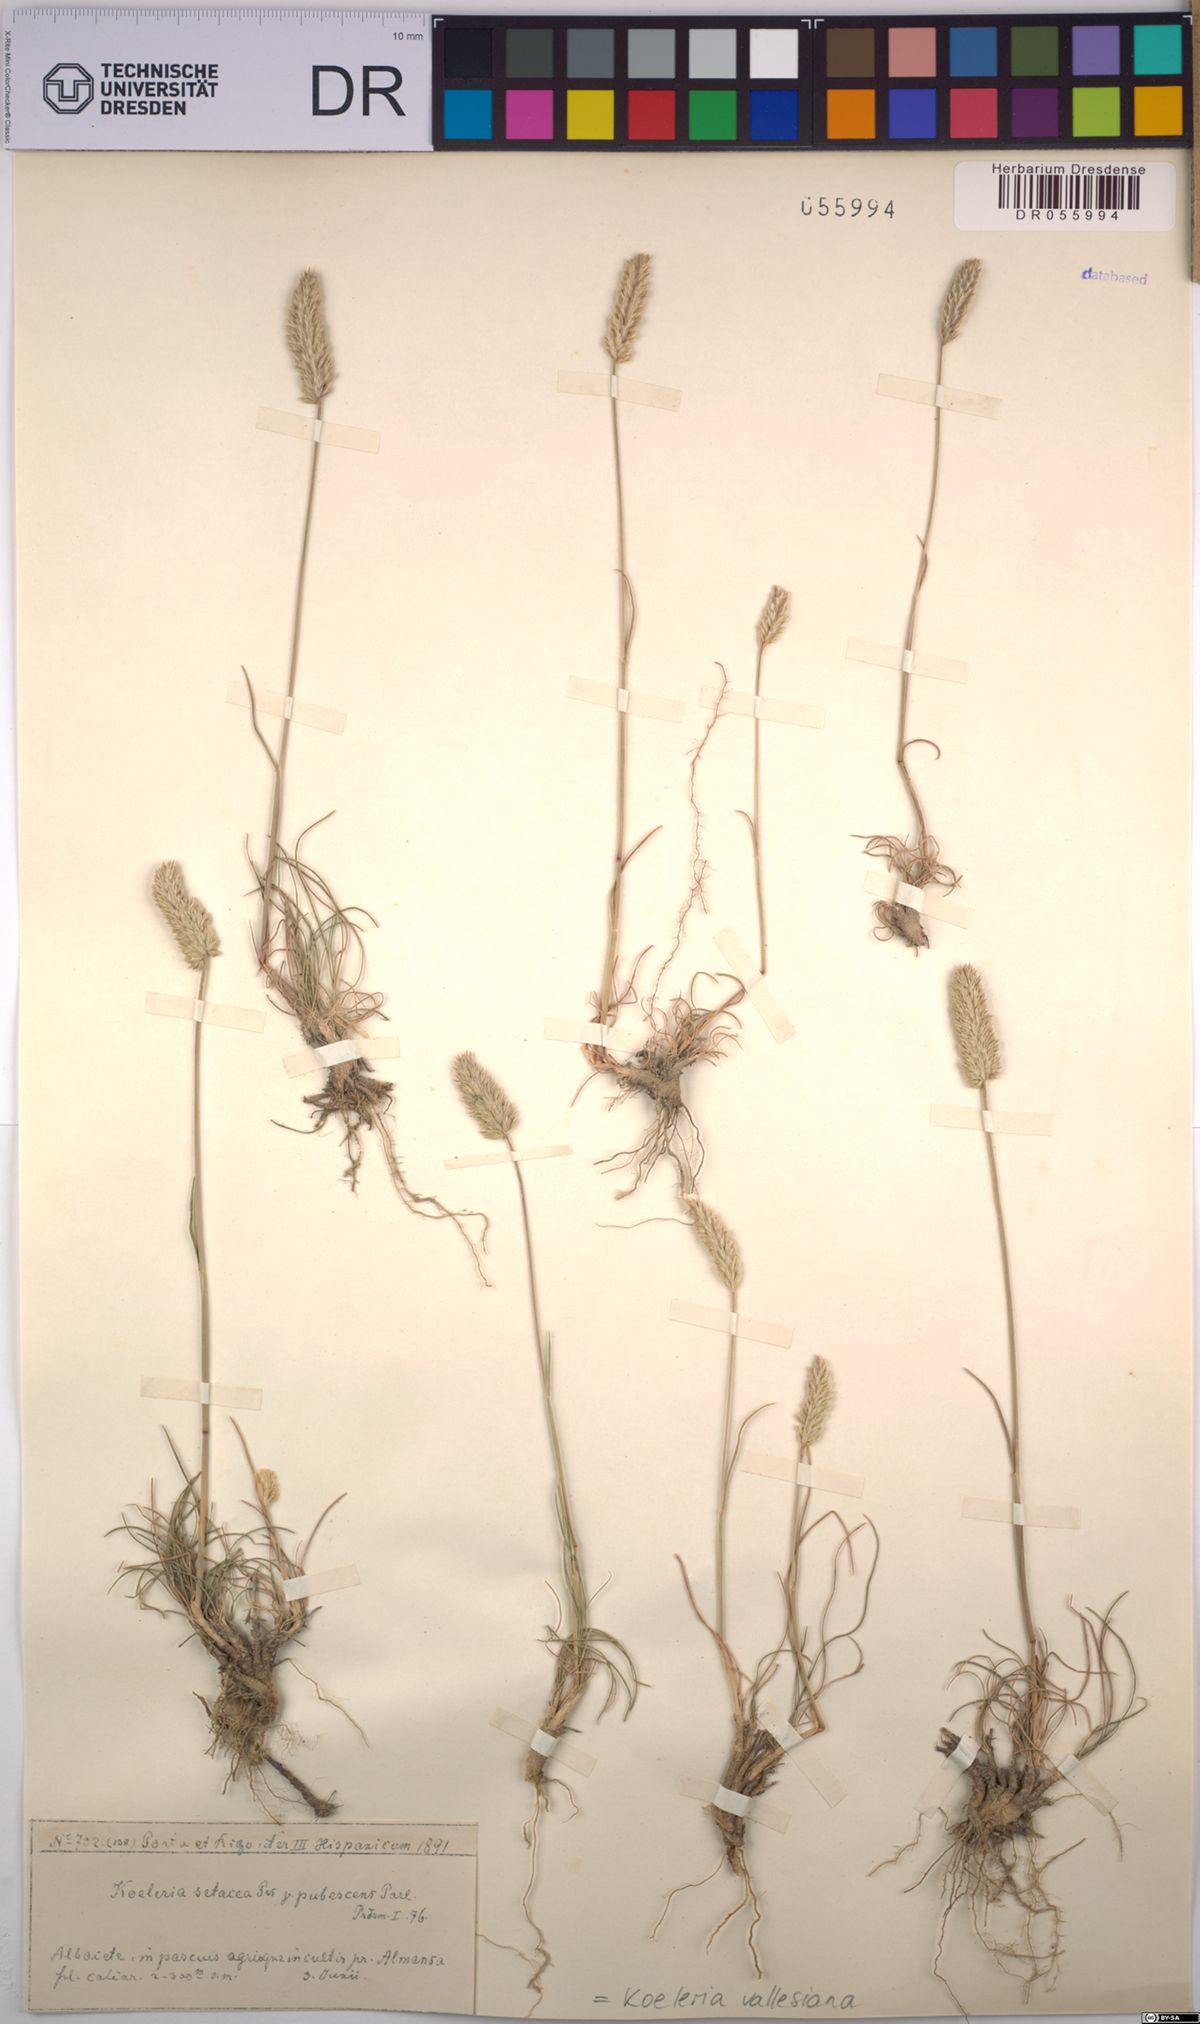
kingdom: Plantae
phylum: Tracheophyta
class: Liliopsida
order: Poales
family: Poaceae
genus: Koeleria
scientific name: Koeleria vallesiana
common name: Somerset hair-grass
